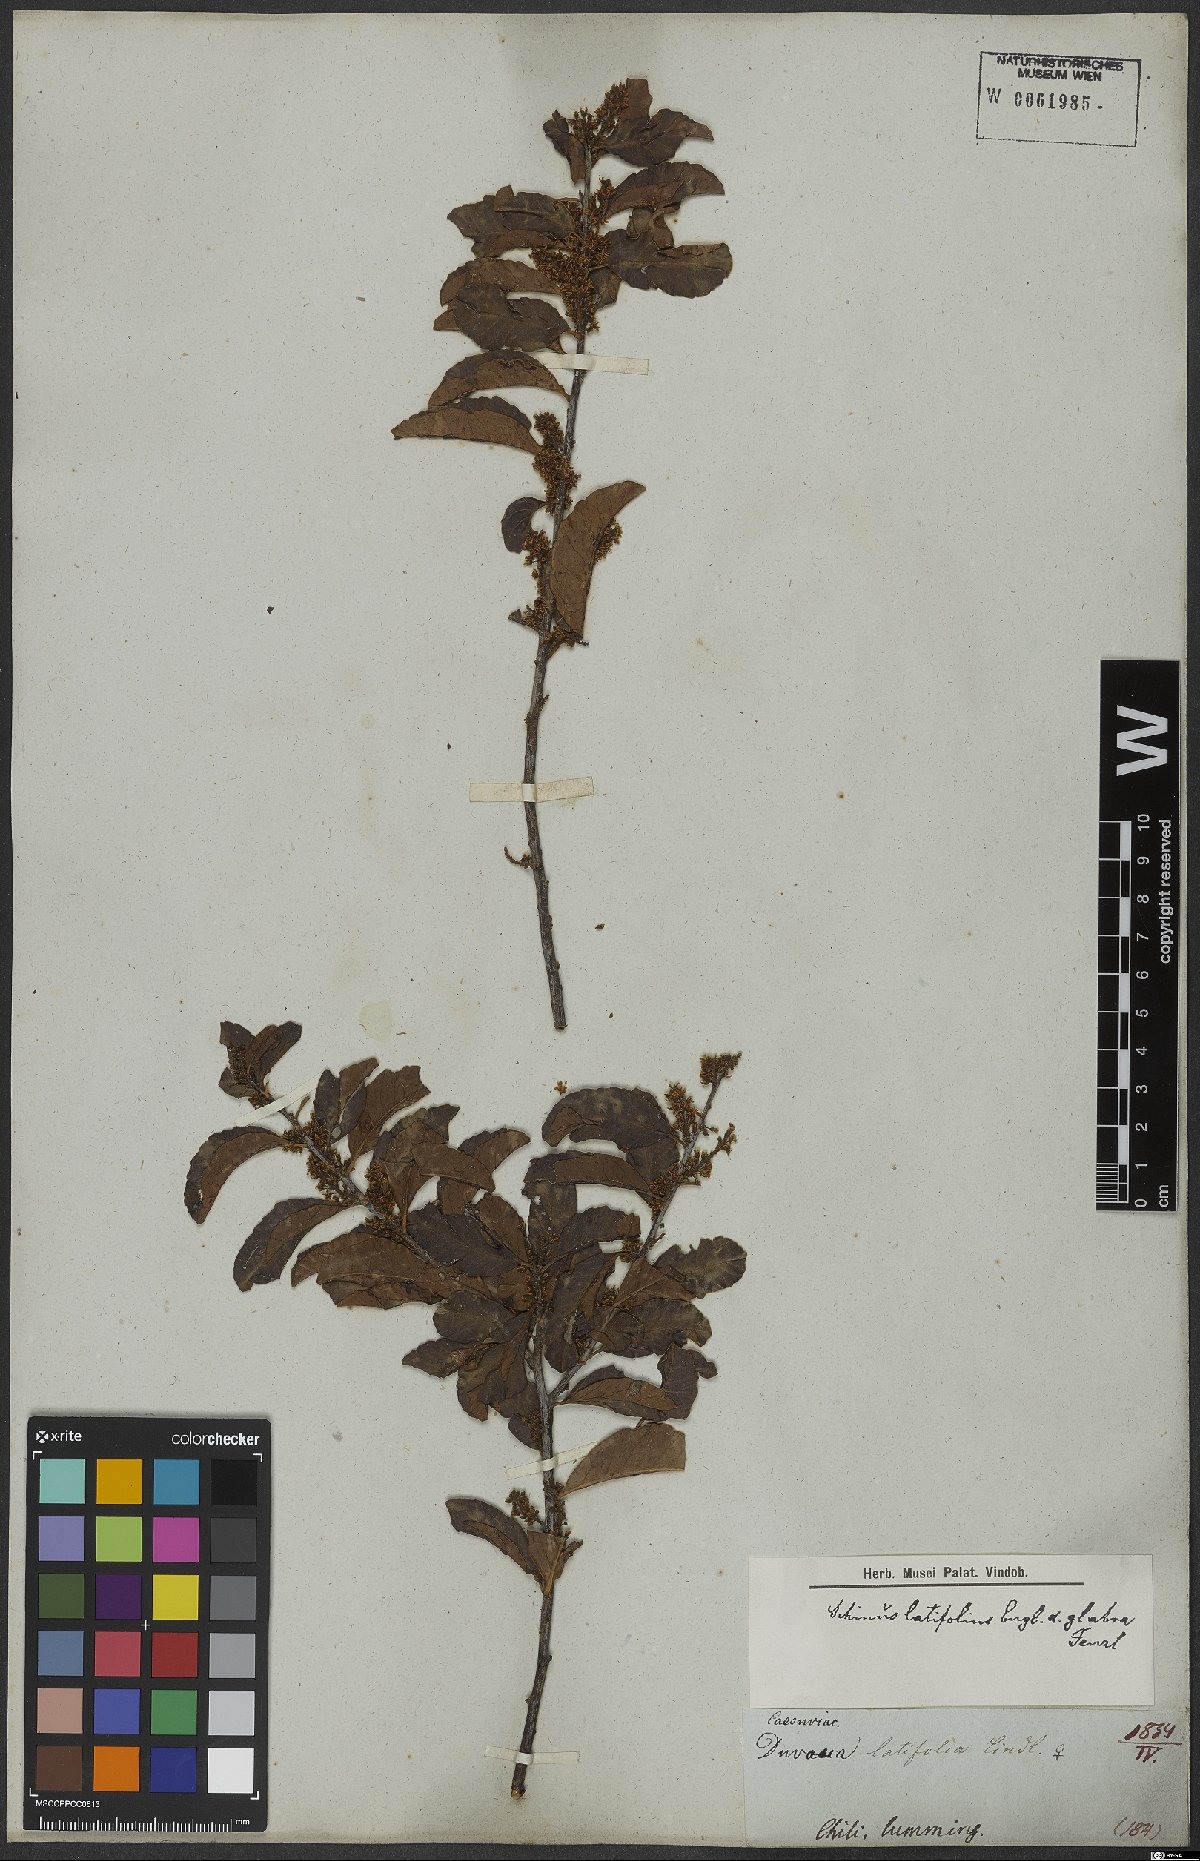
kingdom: Plantae
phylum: Tracheophyta
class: Magnoliopsida
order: Sapindales
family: Anacardiaceae
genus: Schinus
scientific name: Schinus latifolia
